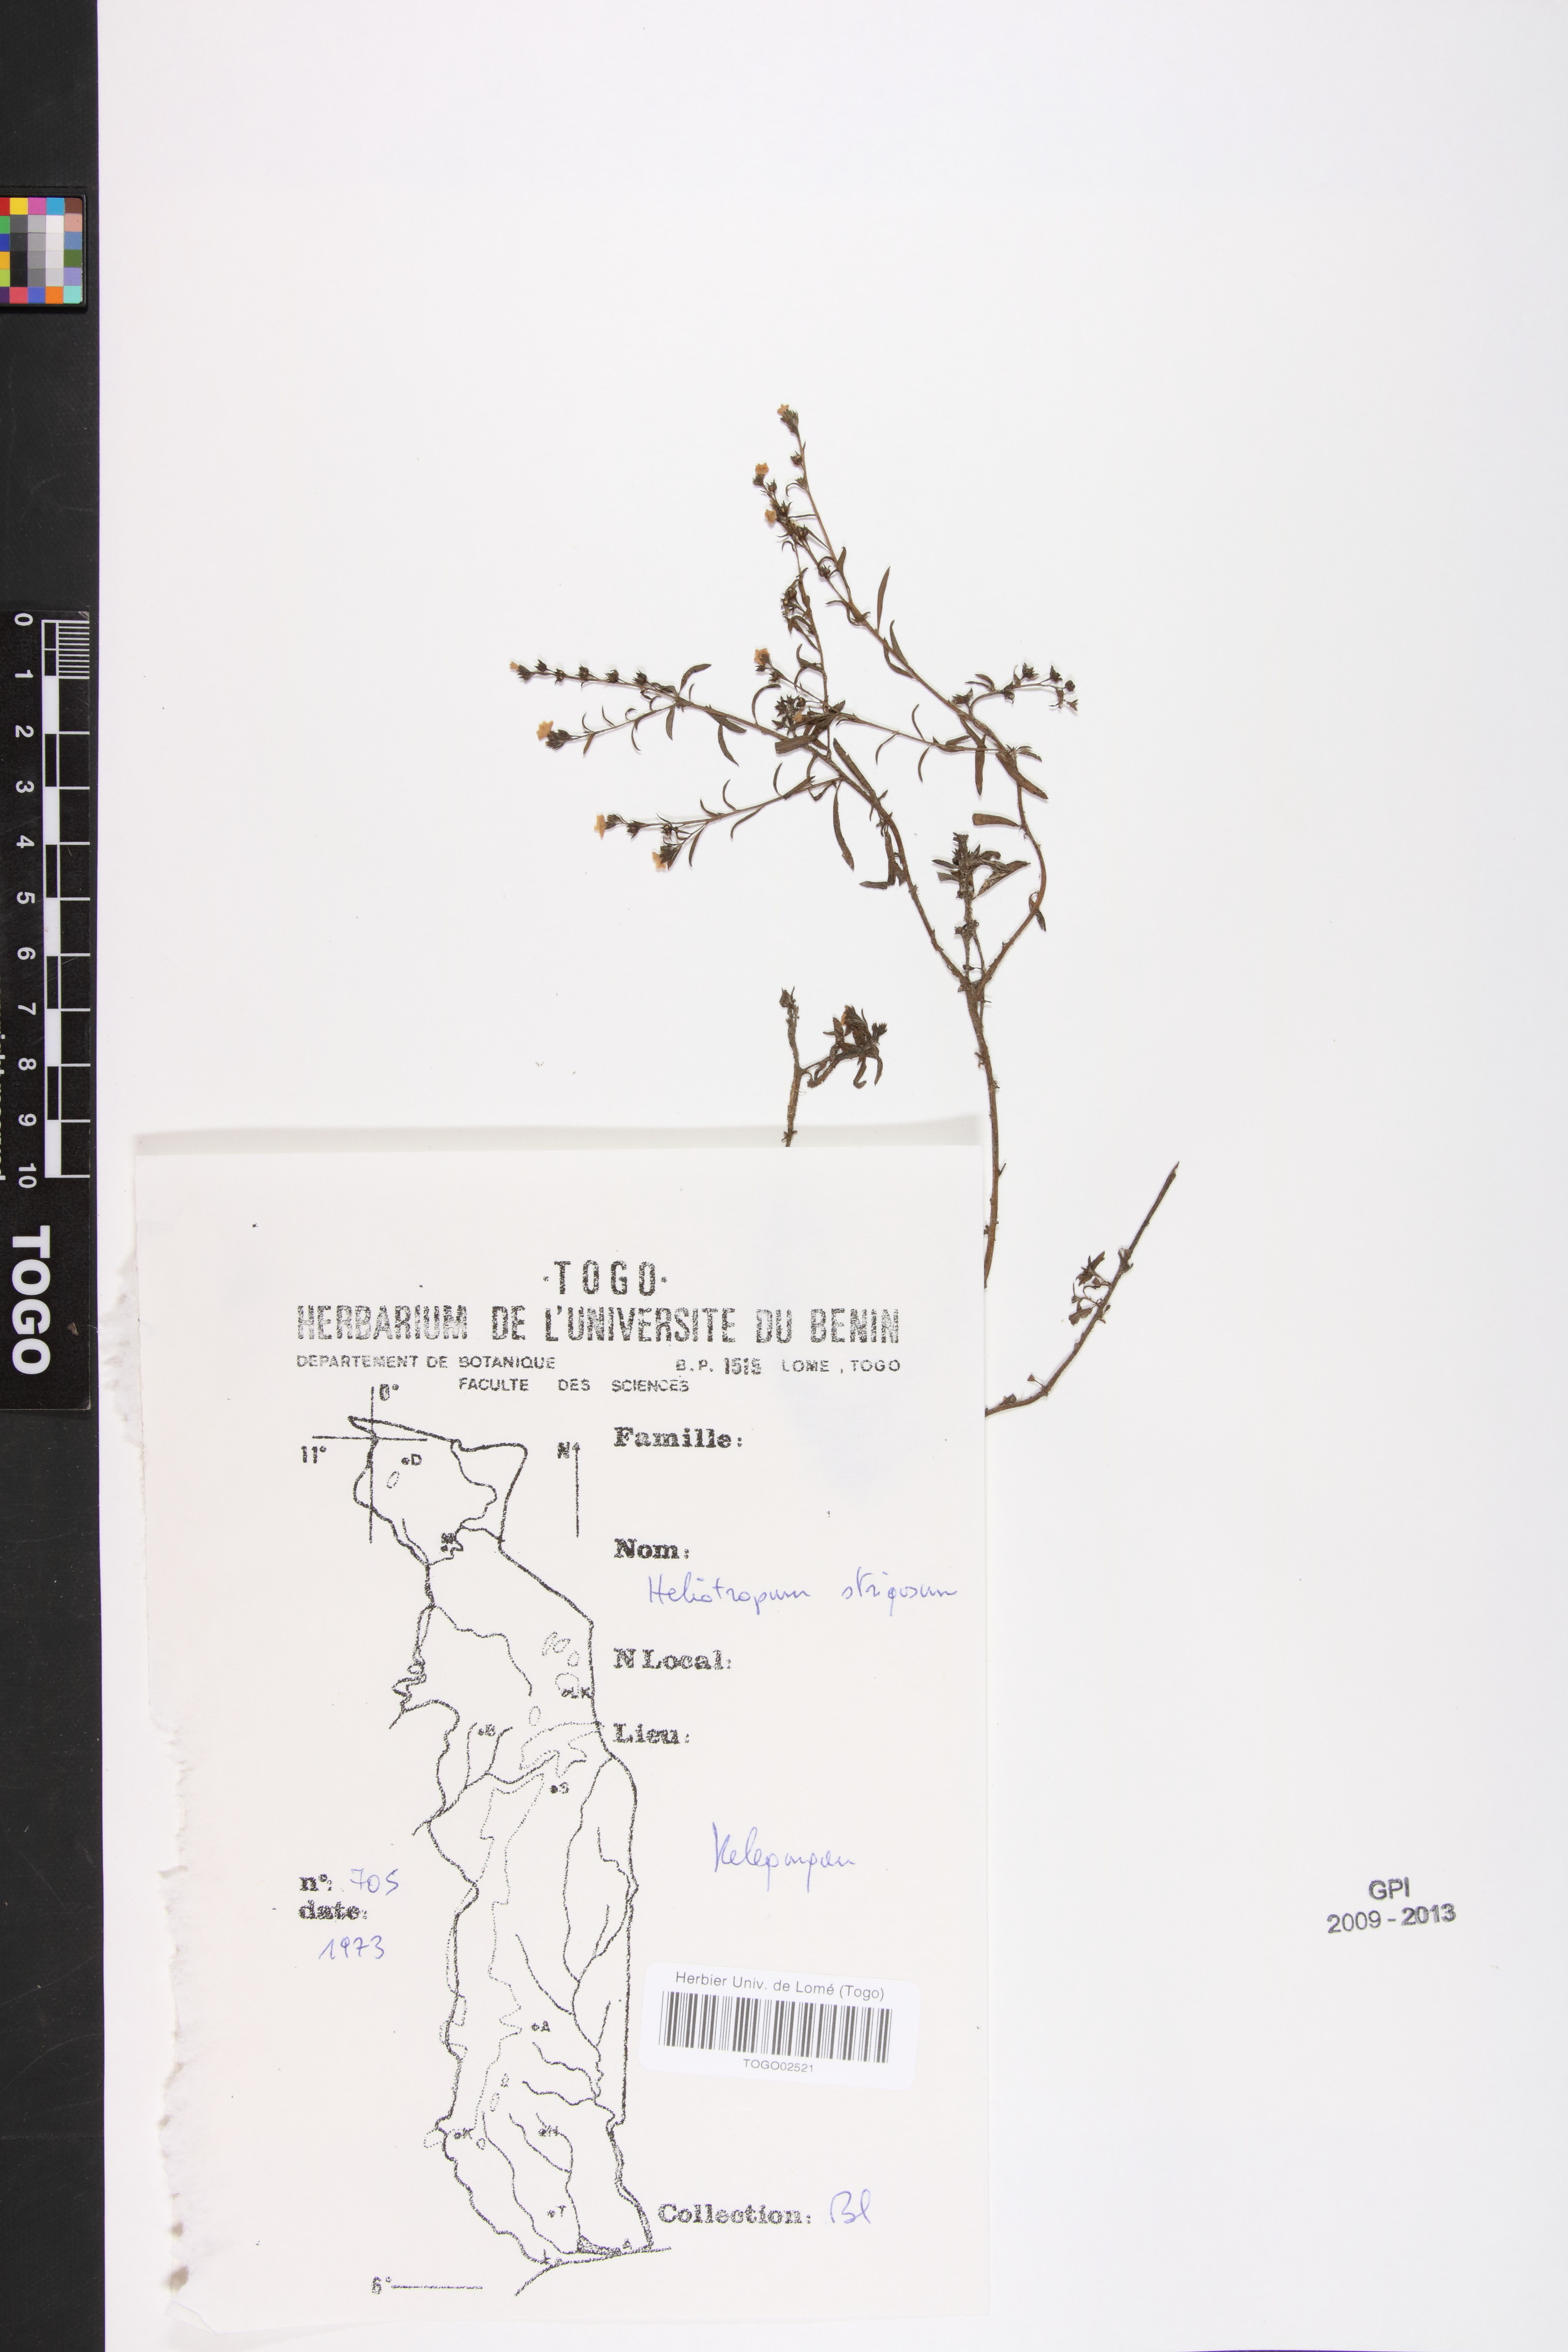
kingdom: Plantae
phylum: Tracheophyta
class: Magnoliopsida
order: Boraginales
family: Heliotropiaceae
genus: Euploca
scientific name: Euploca strigosa
